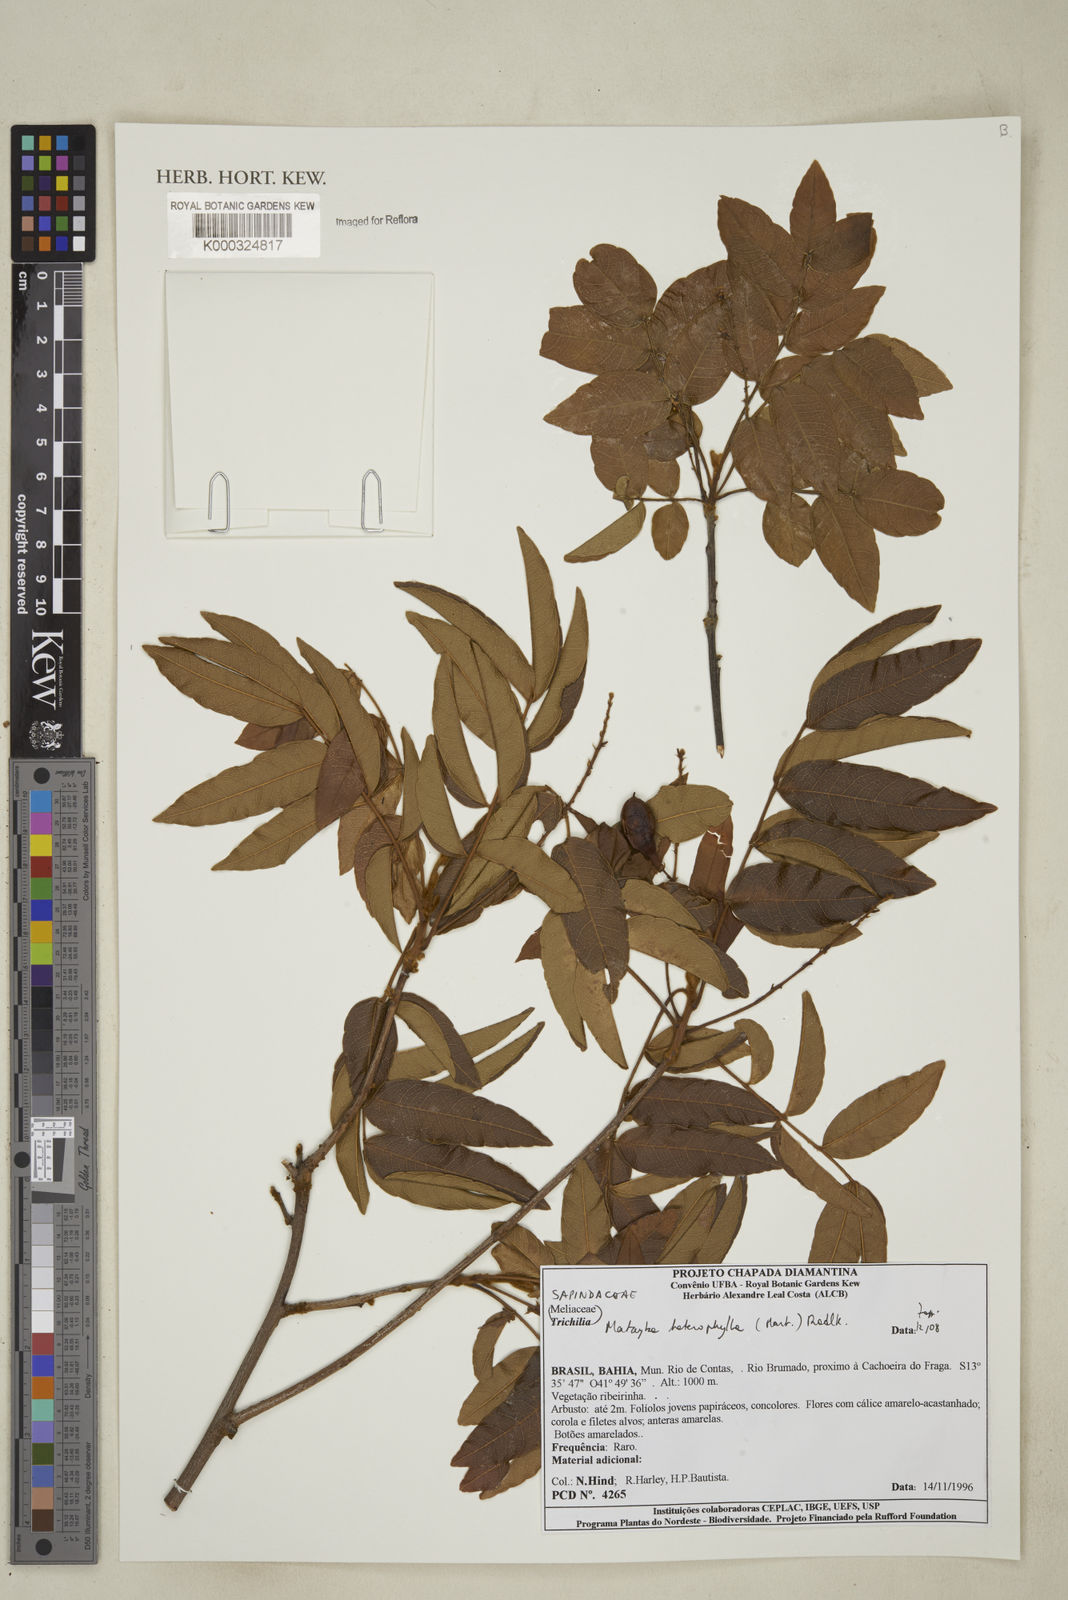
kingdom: Plantae
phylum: Tracheophyta
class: Magnoliopsida
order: Sapindales
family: Sapindaceae
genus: Matayba
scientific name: Matayba heterophylla
